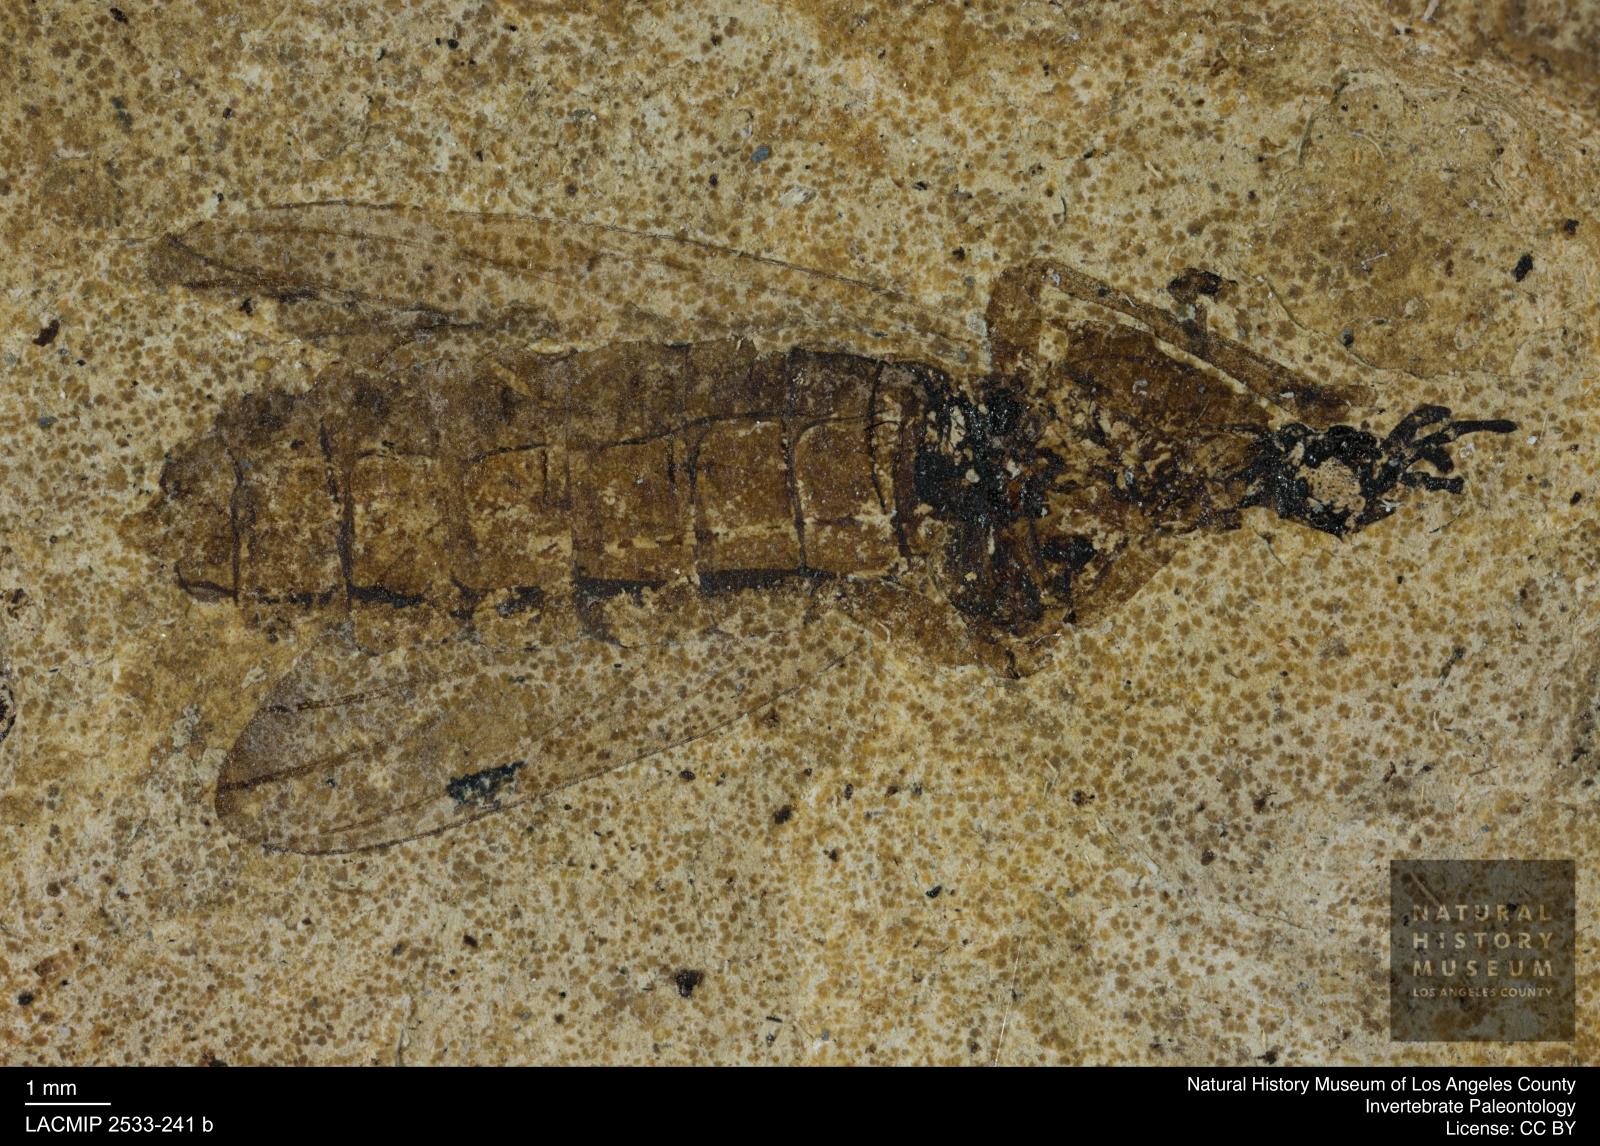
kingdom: Animalia
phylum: Arthropoda
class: Insecta
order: Diptera
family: Bibionidae
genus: Bibio
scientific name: Bibio rottensis
